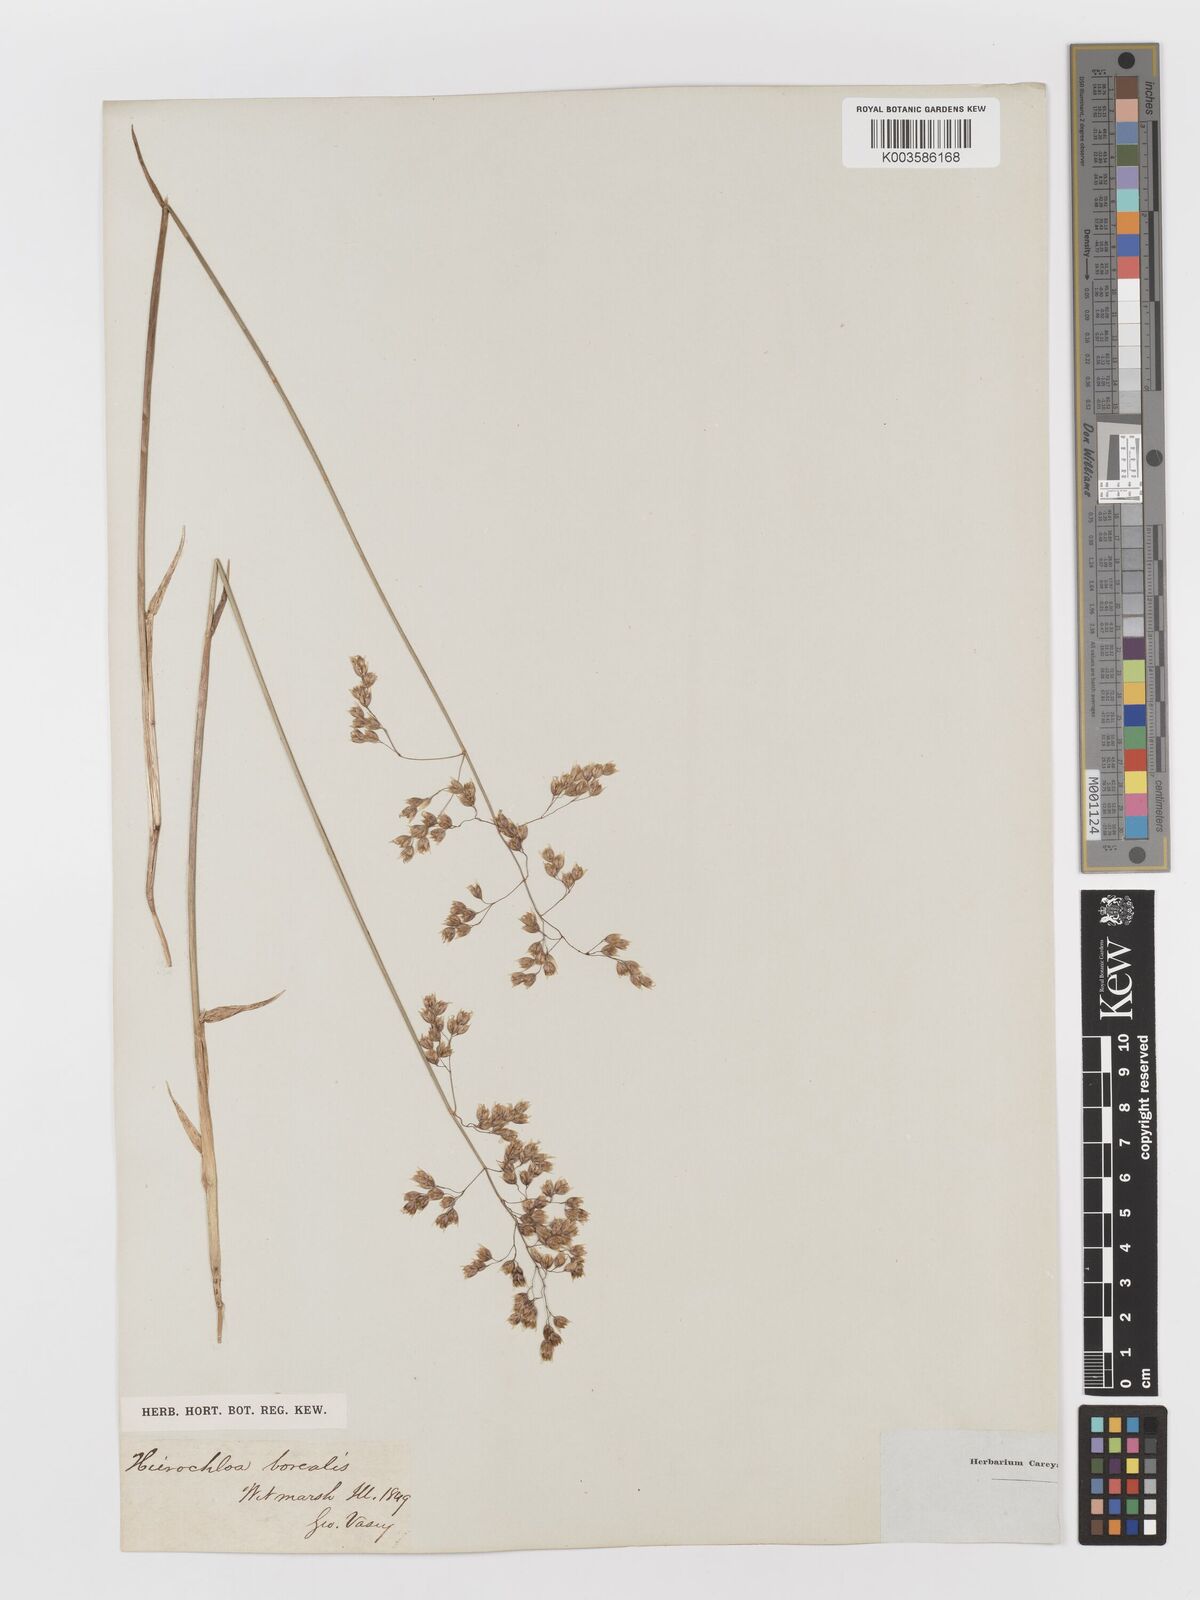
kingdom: Plantae
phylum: Tracheophyta
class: Liliopsida
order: Poales
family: Poaceae
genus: Anthoxanthum
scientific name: Anthoxanthum nitens
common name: Holy grass
